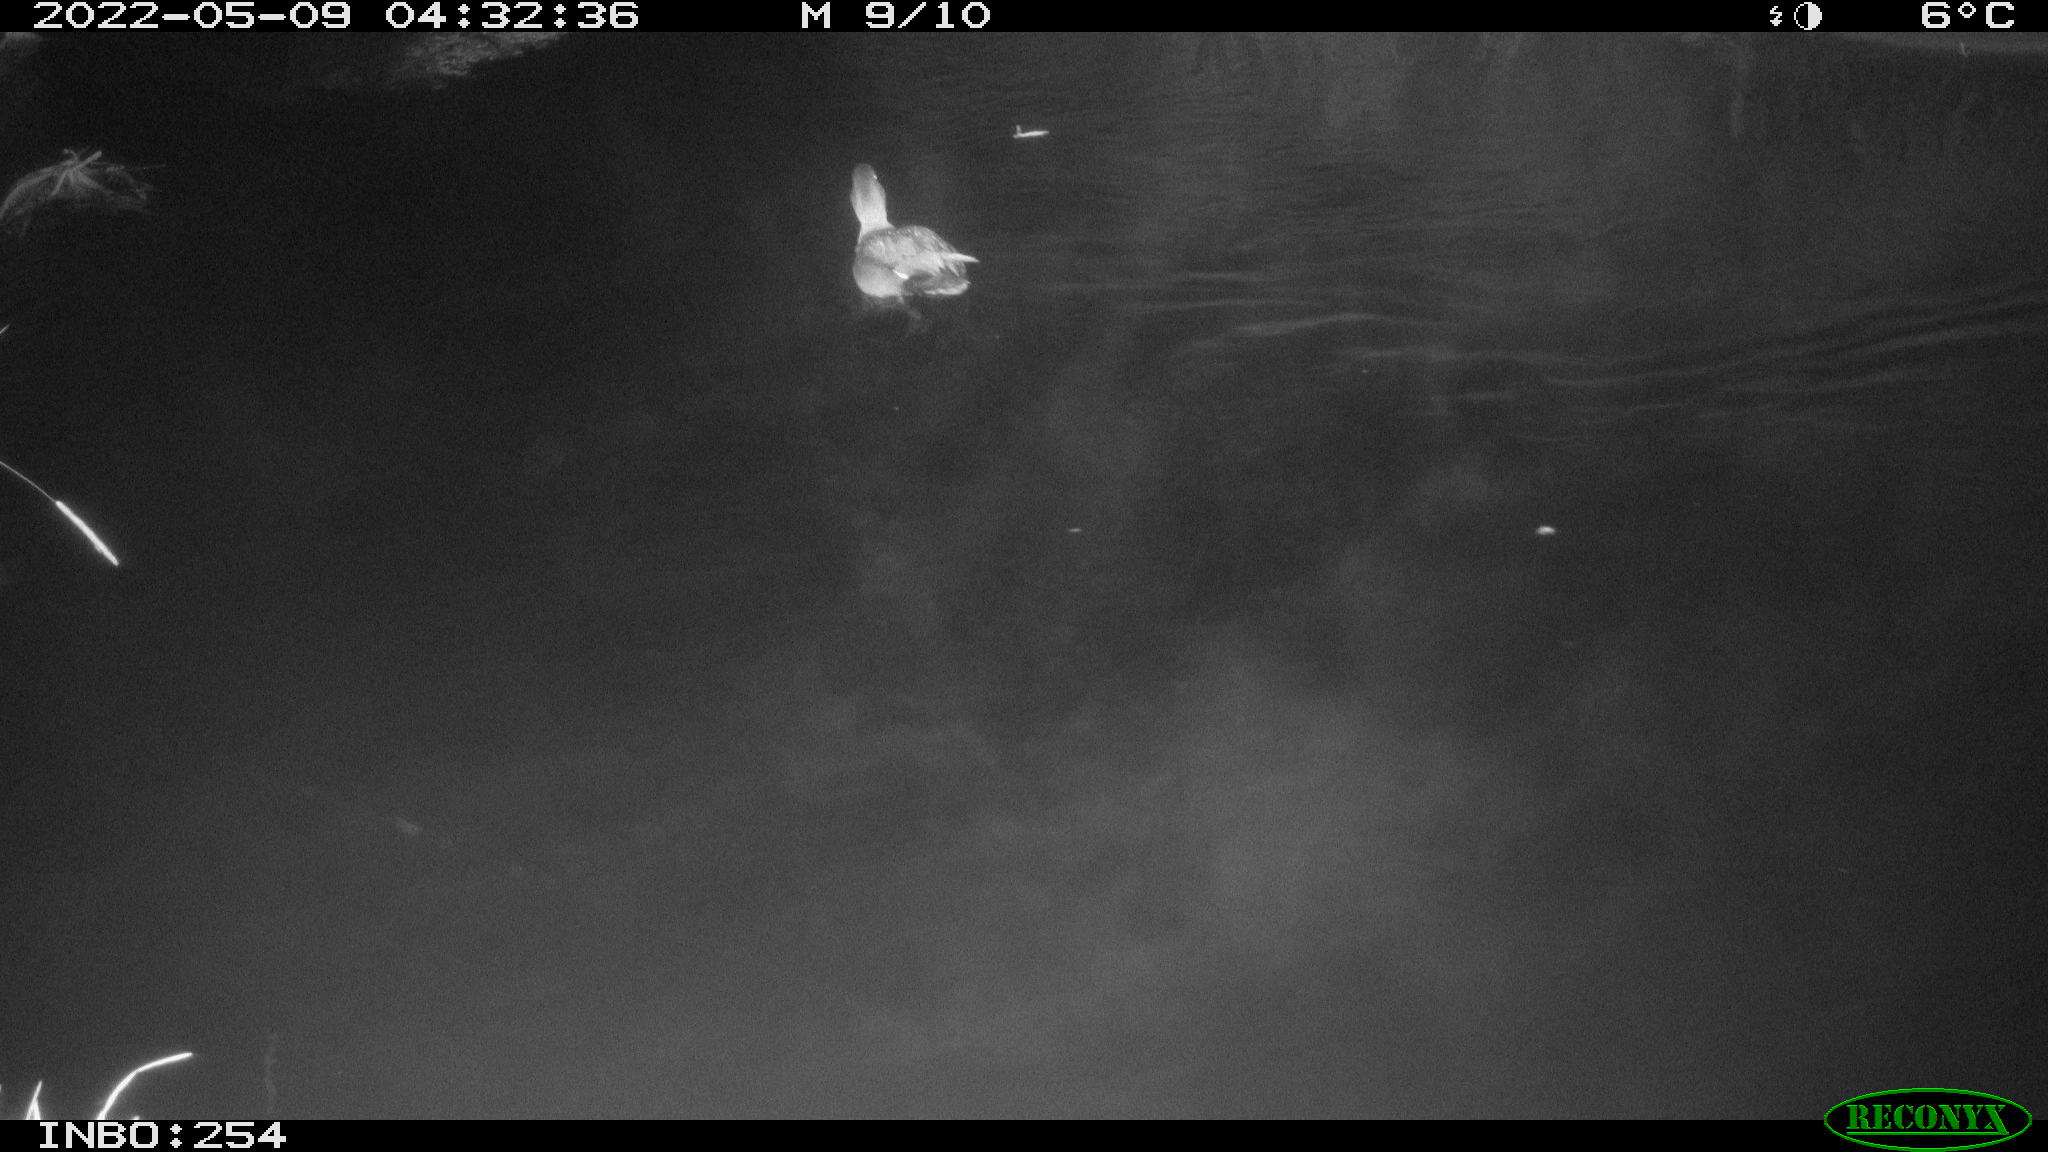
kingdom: Animalia
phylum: Chordata
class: Aves
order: Anseriformes
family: Anatidae
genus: Mareca
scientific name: Mareca strepera
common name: Gadwall
